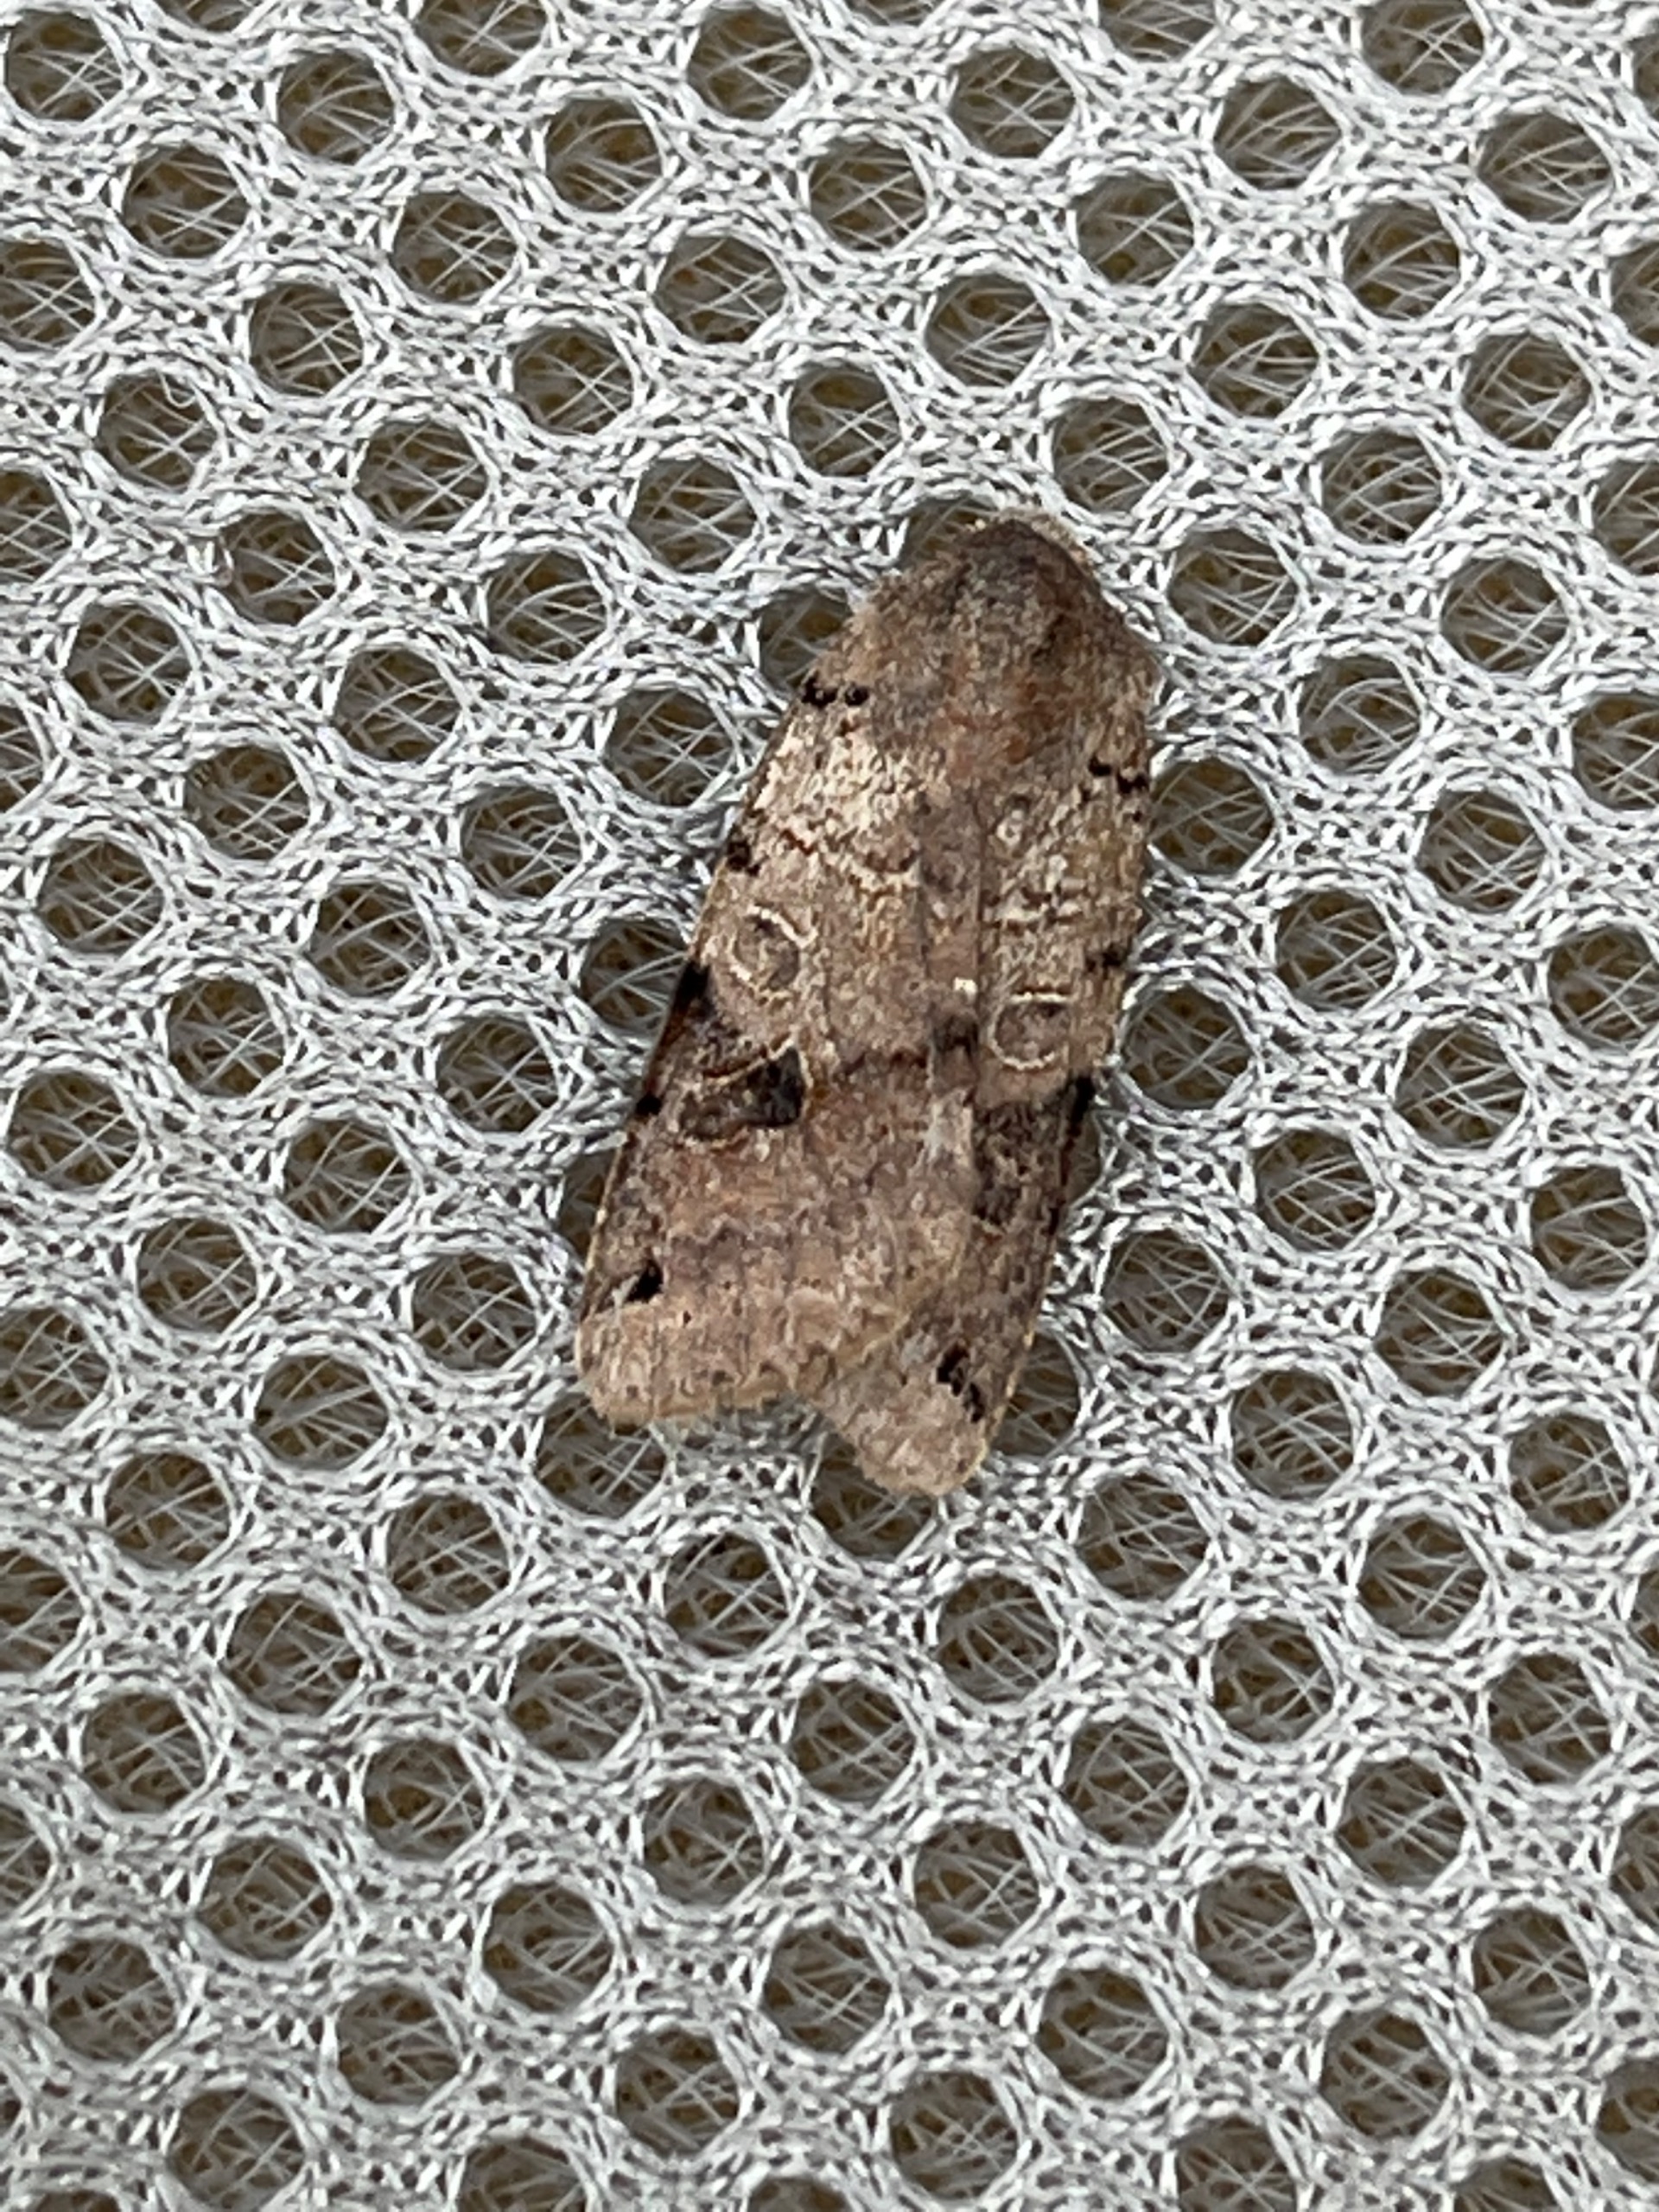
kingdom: Animalia
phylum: Arthropoda
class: Insecta
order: Lepidoptera
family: Noctuidae
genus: Agrochola
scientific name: Agrochola litura
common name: Kantplettet jordfarveugle
